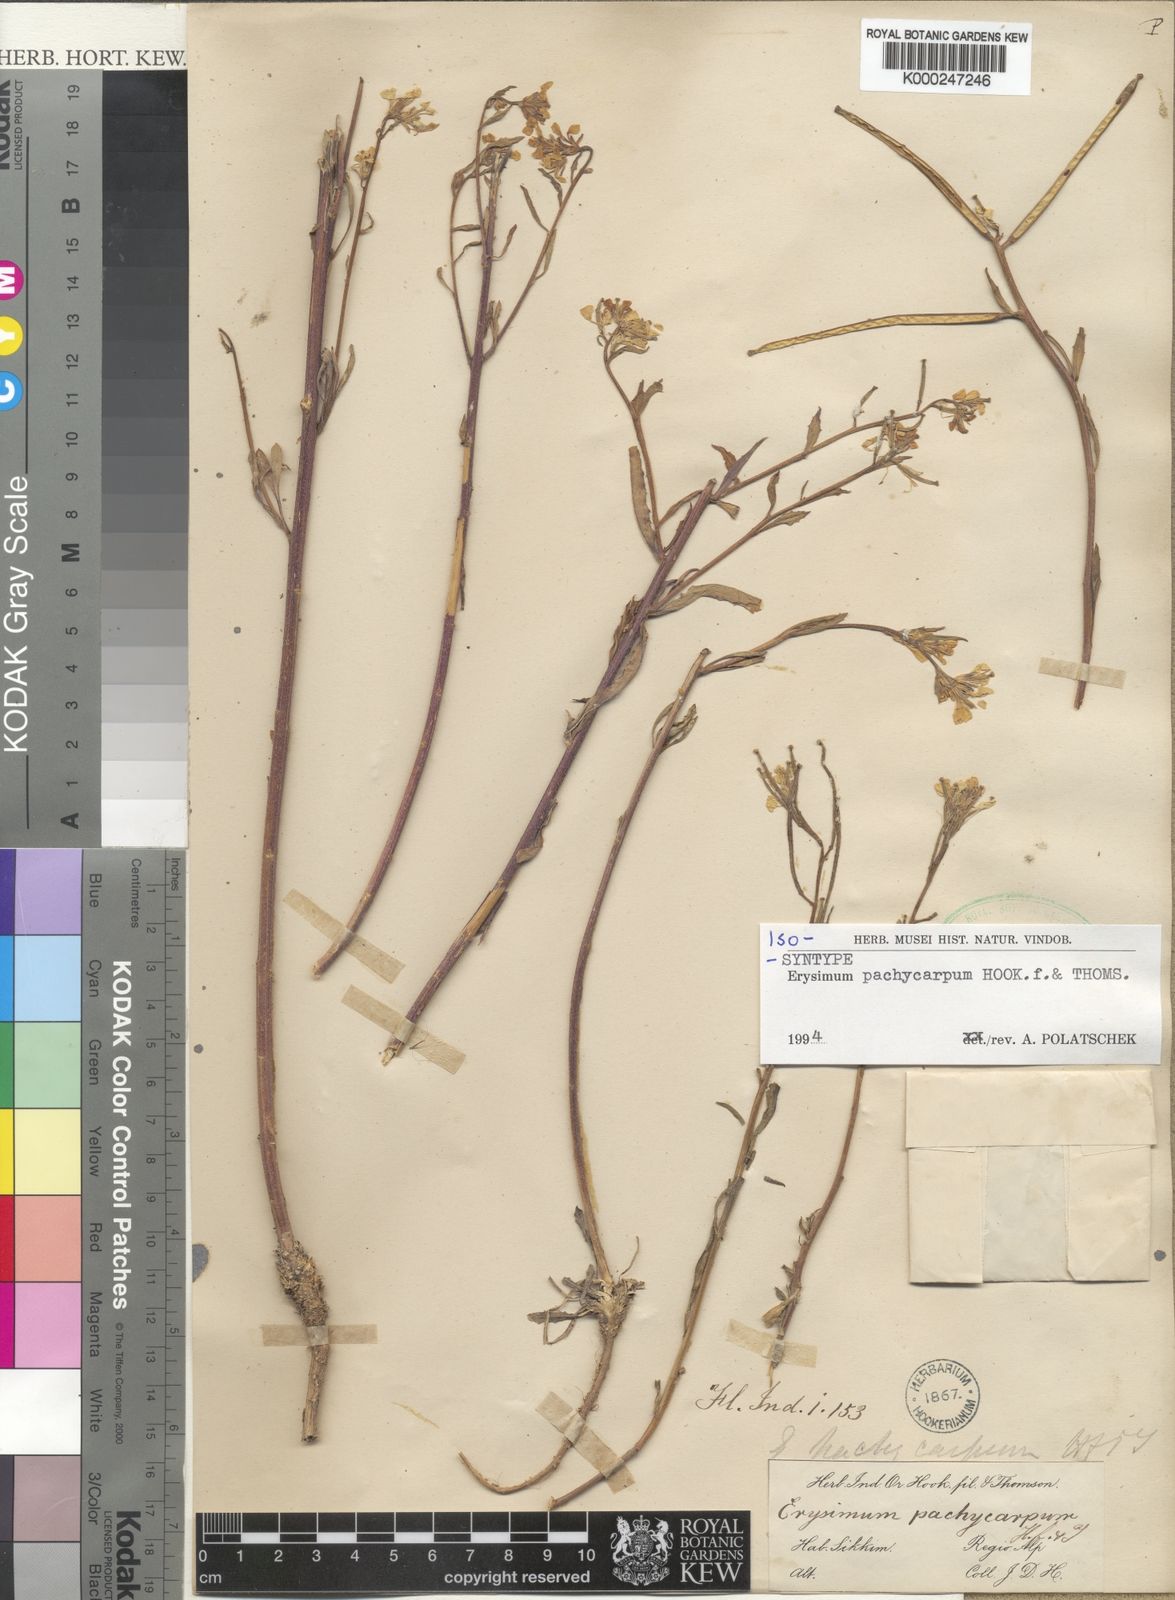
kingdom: Plantae
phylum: Tracheophyta
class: Magnoliopsida
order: Brassicales
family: Brassicaceae
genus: Erysimum
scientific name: Erysimum pachycarpum
